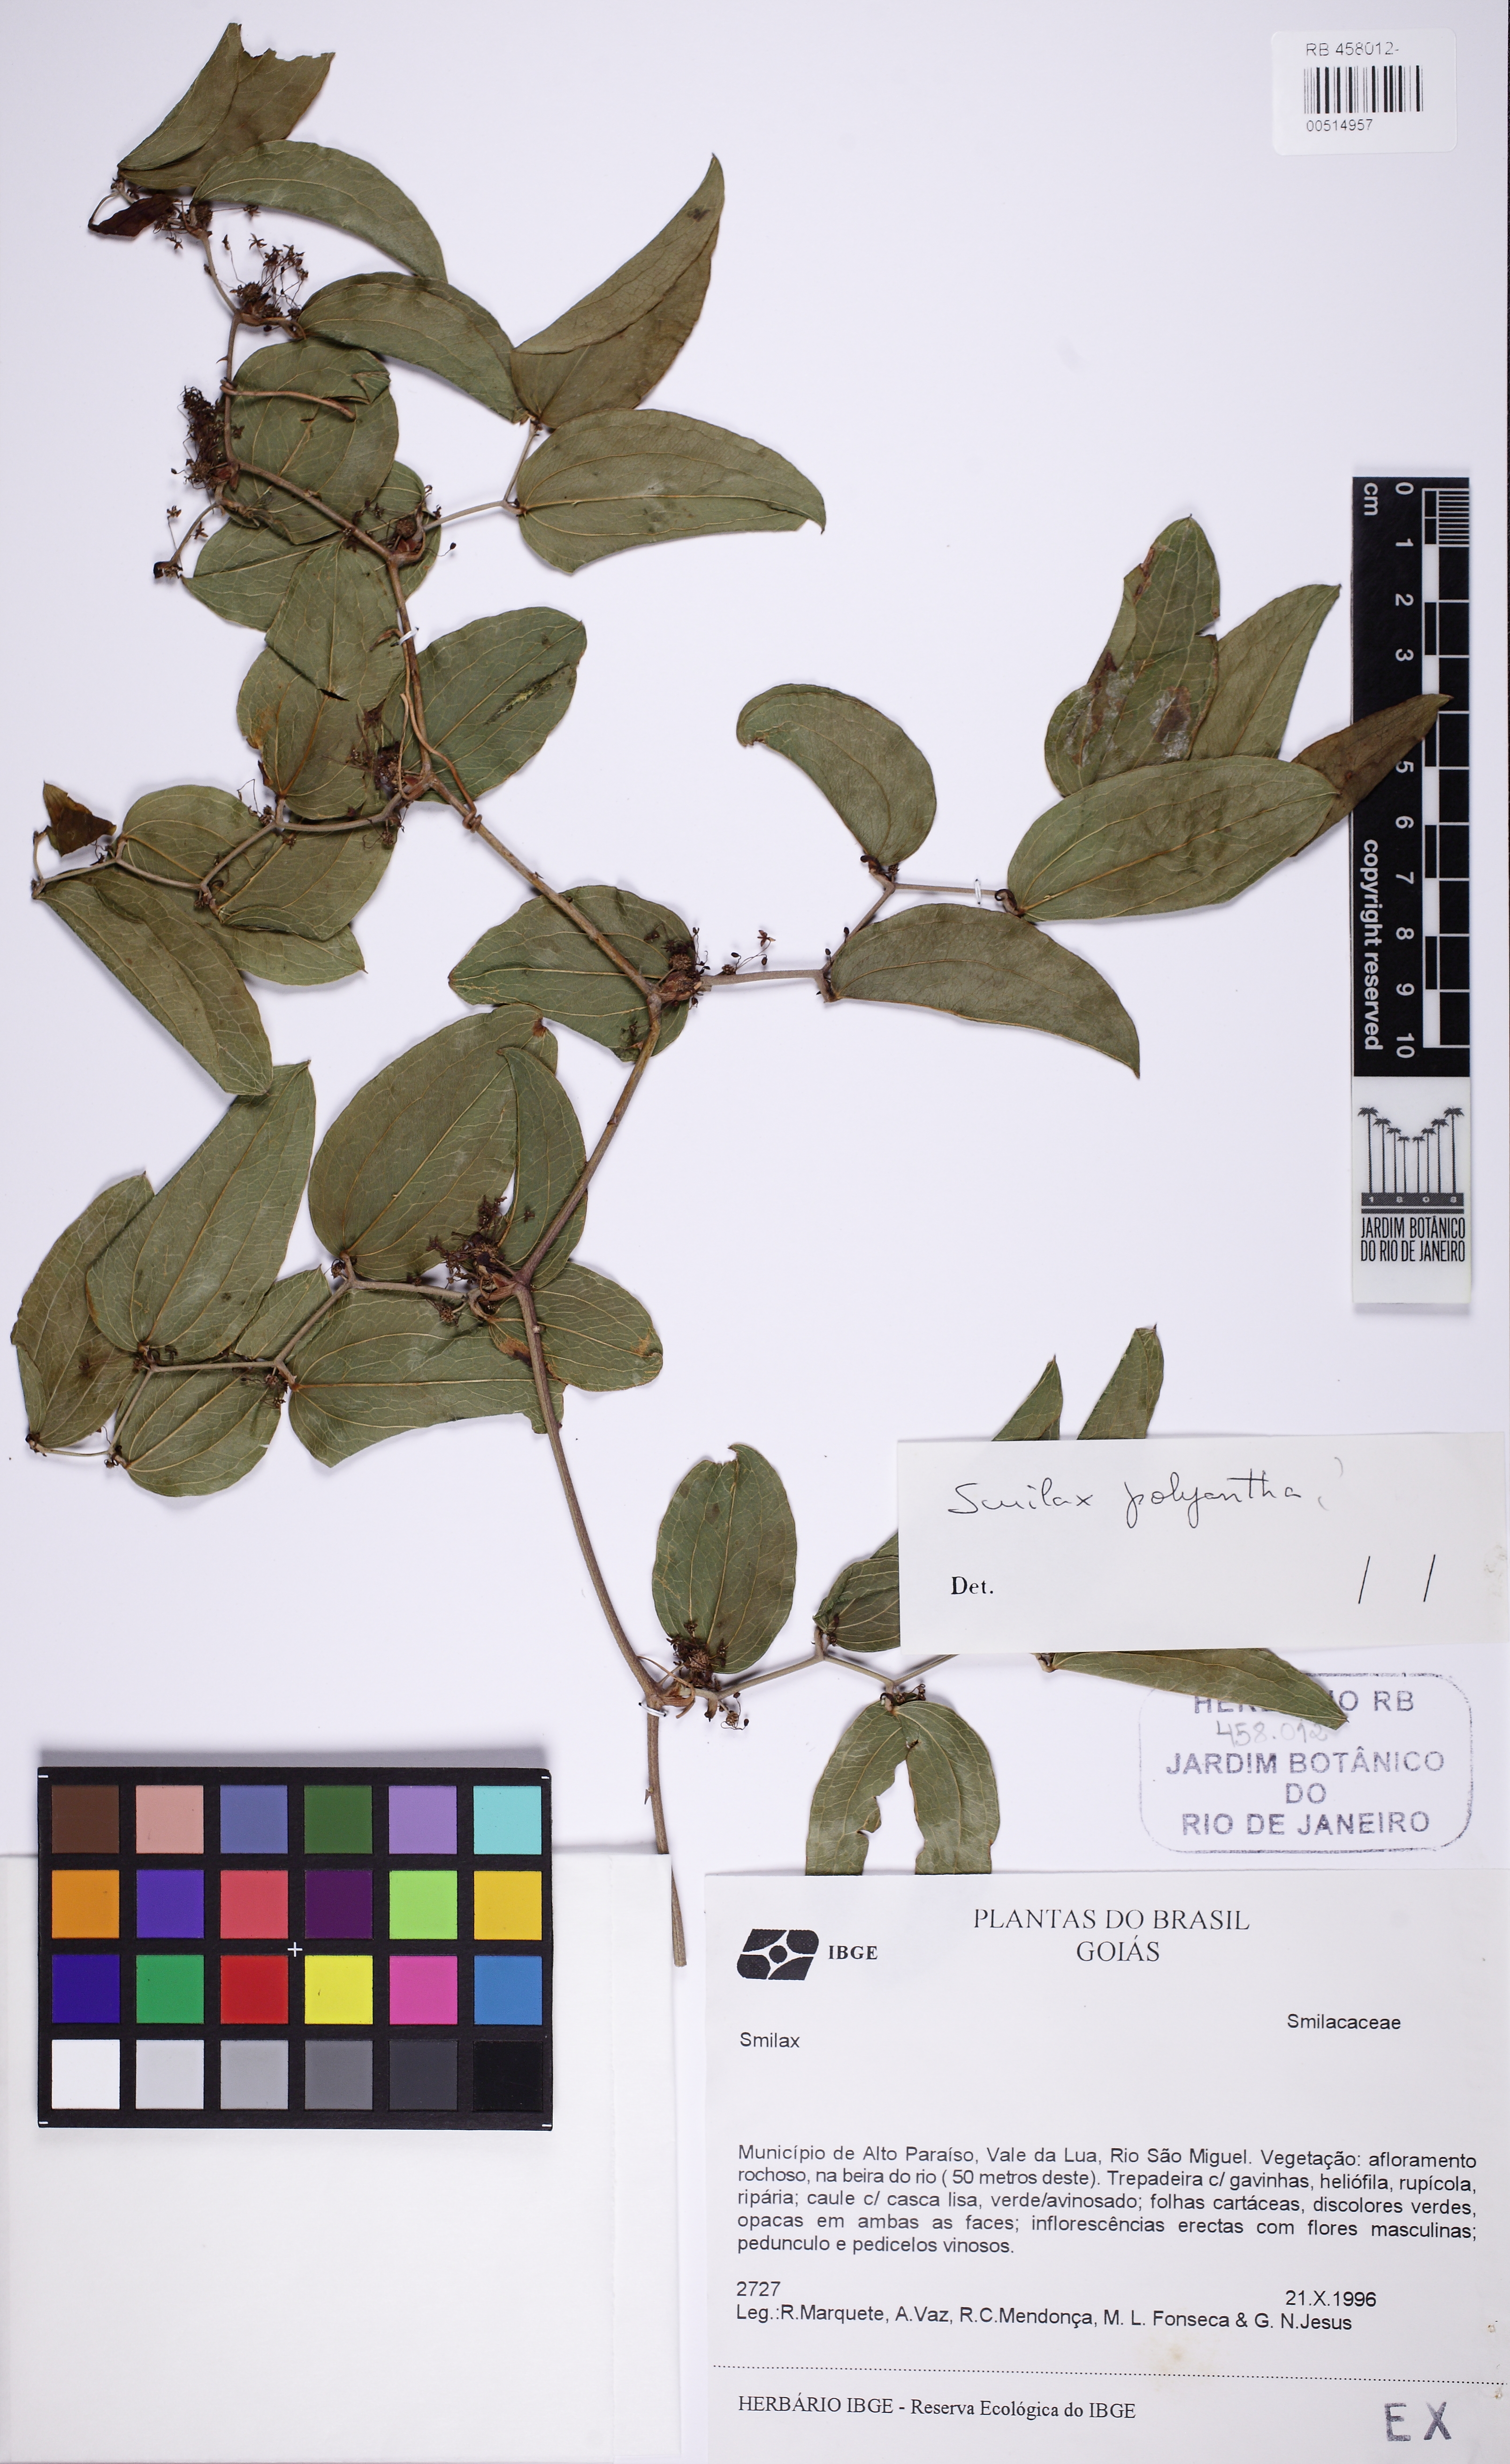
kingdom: Plantae
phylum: Tracheophyta
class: Liliopsida
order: Liliales
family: Smilacaceae
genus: Smilax
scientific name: Smilax polyantha
